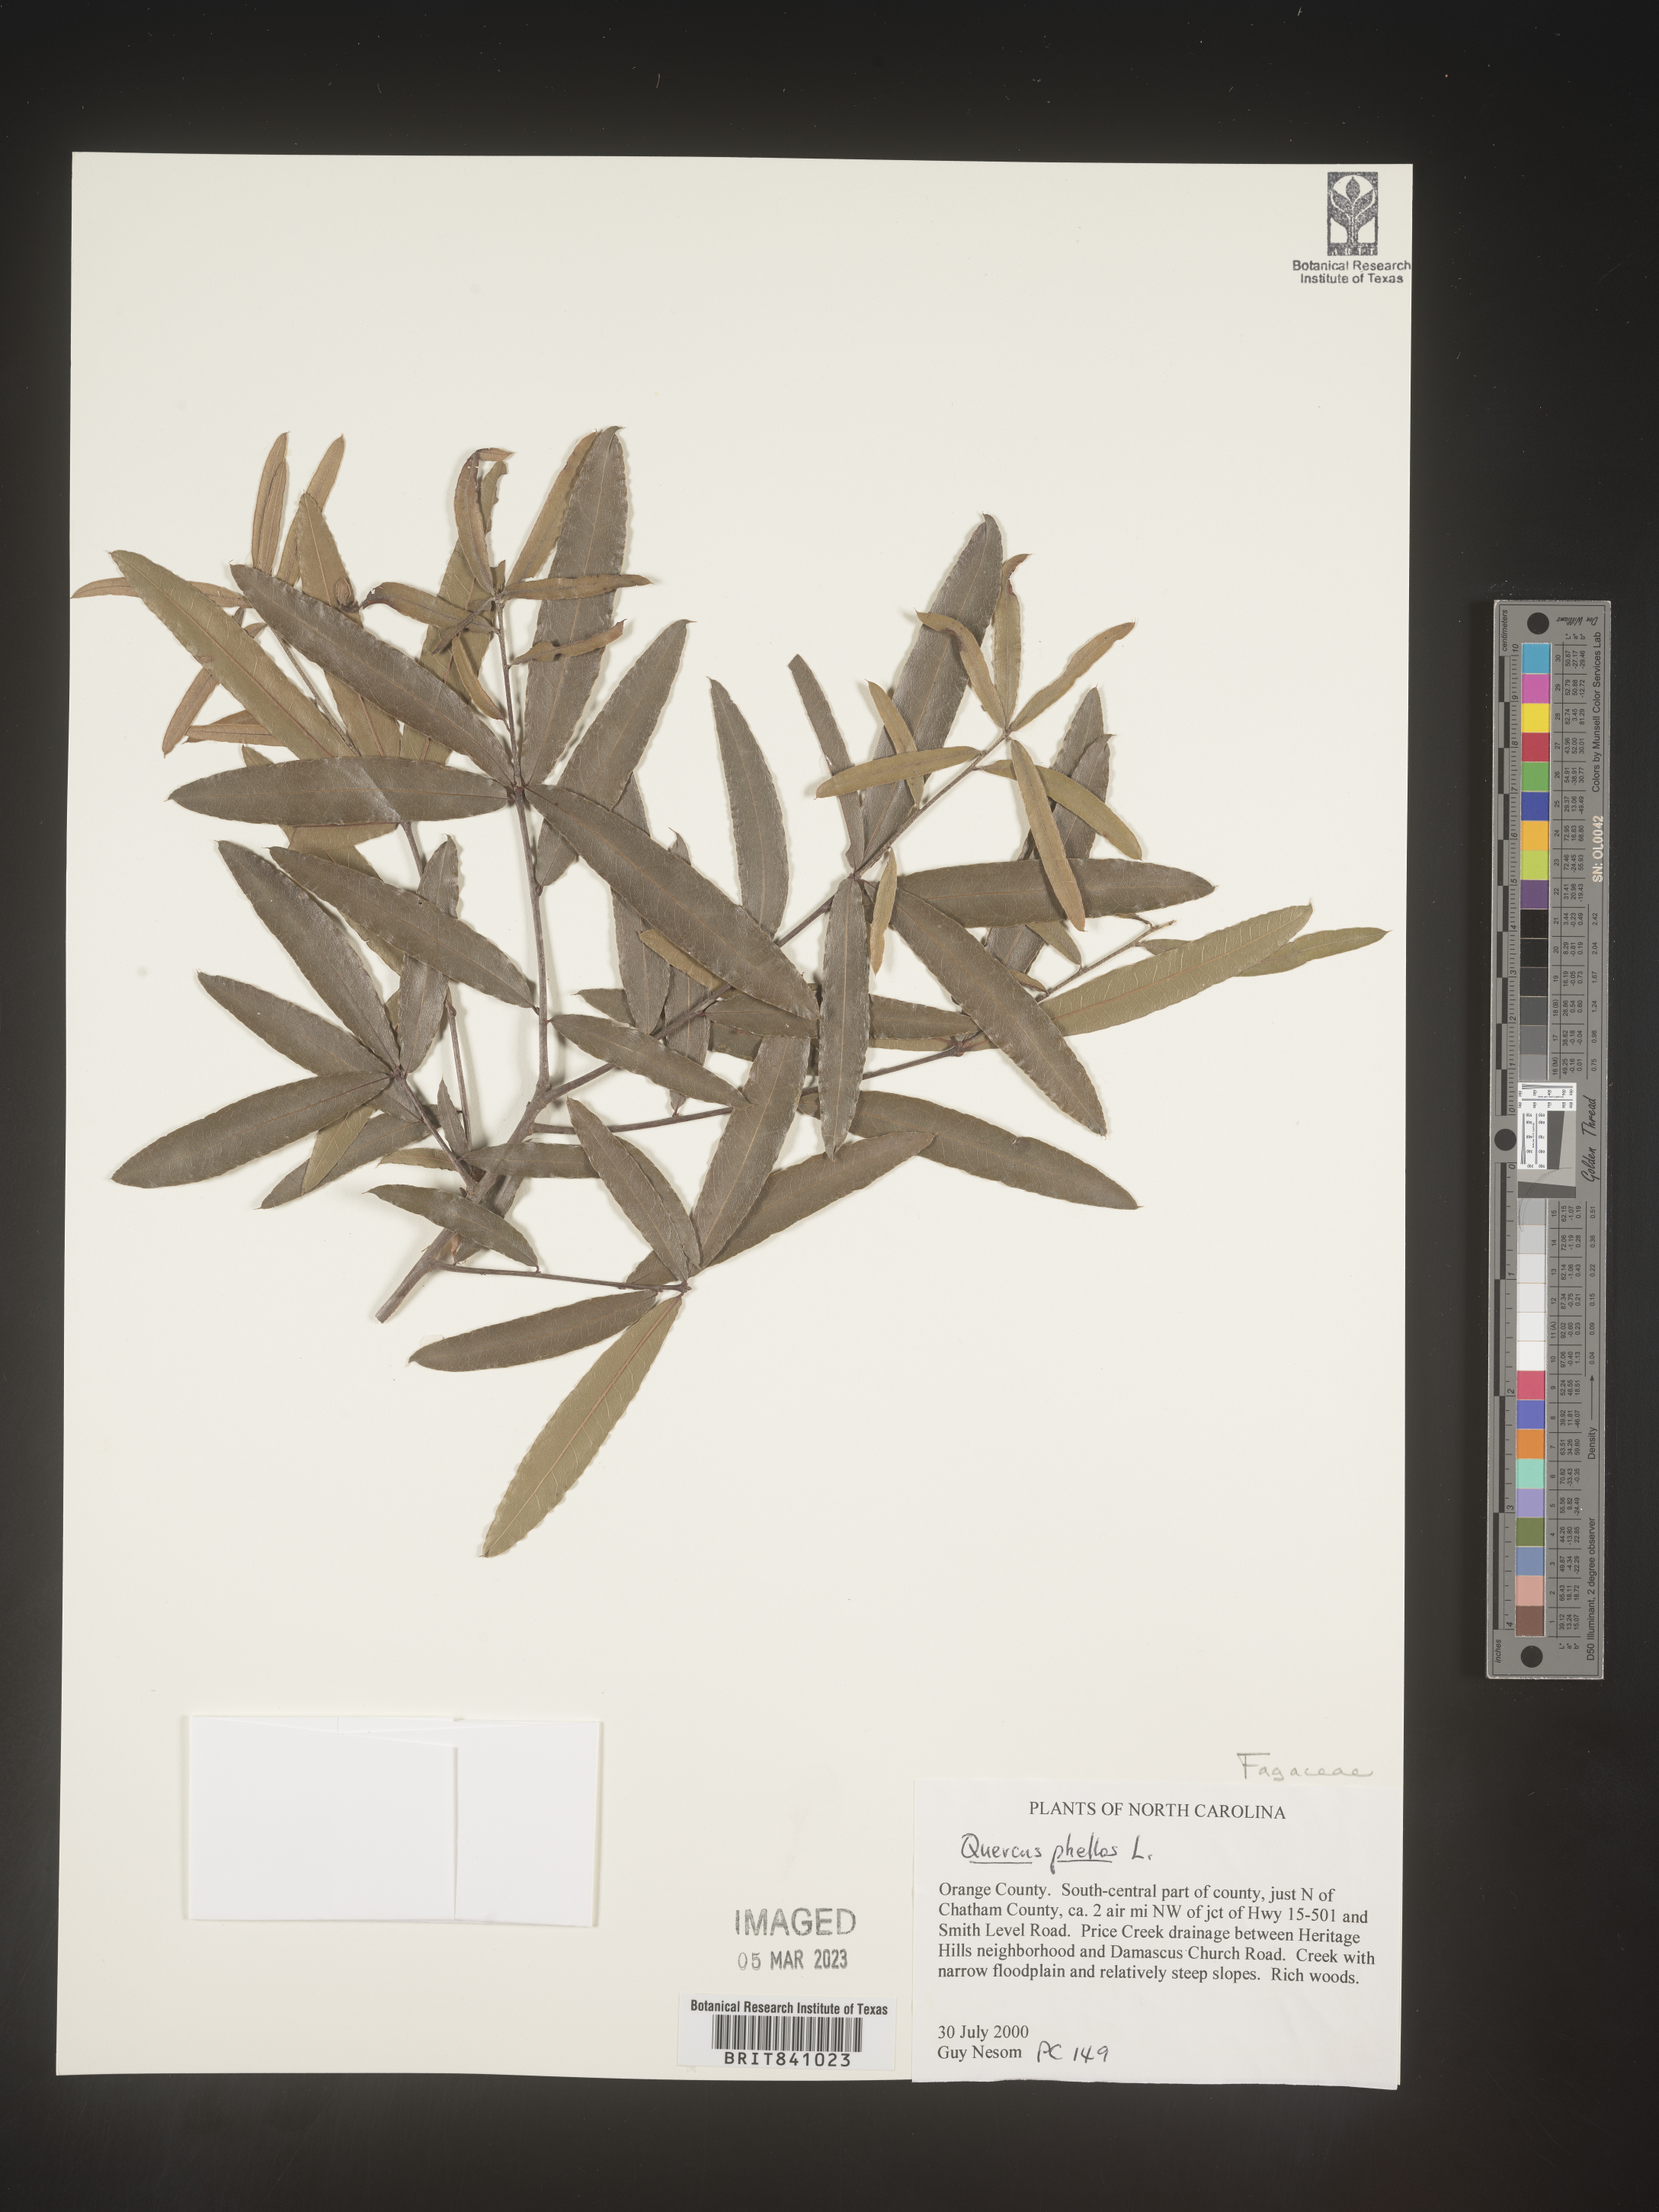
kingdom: Plantae
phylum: Tracheophyta
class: Magnoliopsida
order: Fagales
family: Fagaceae
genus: Quercus
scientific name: Quercus phellos
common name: Willow oak
